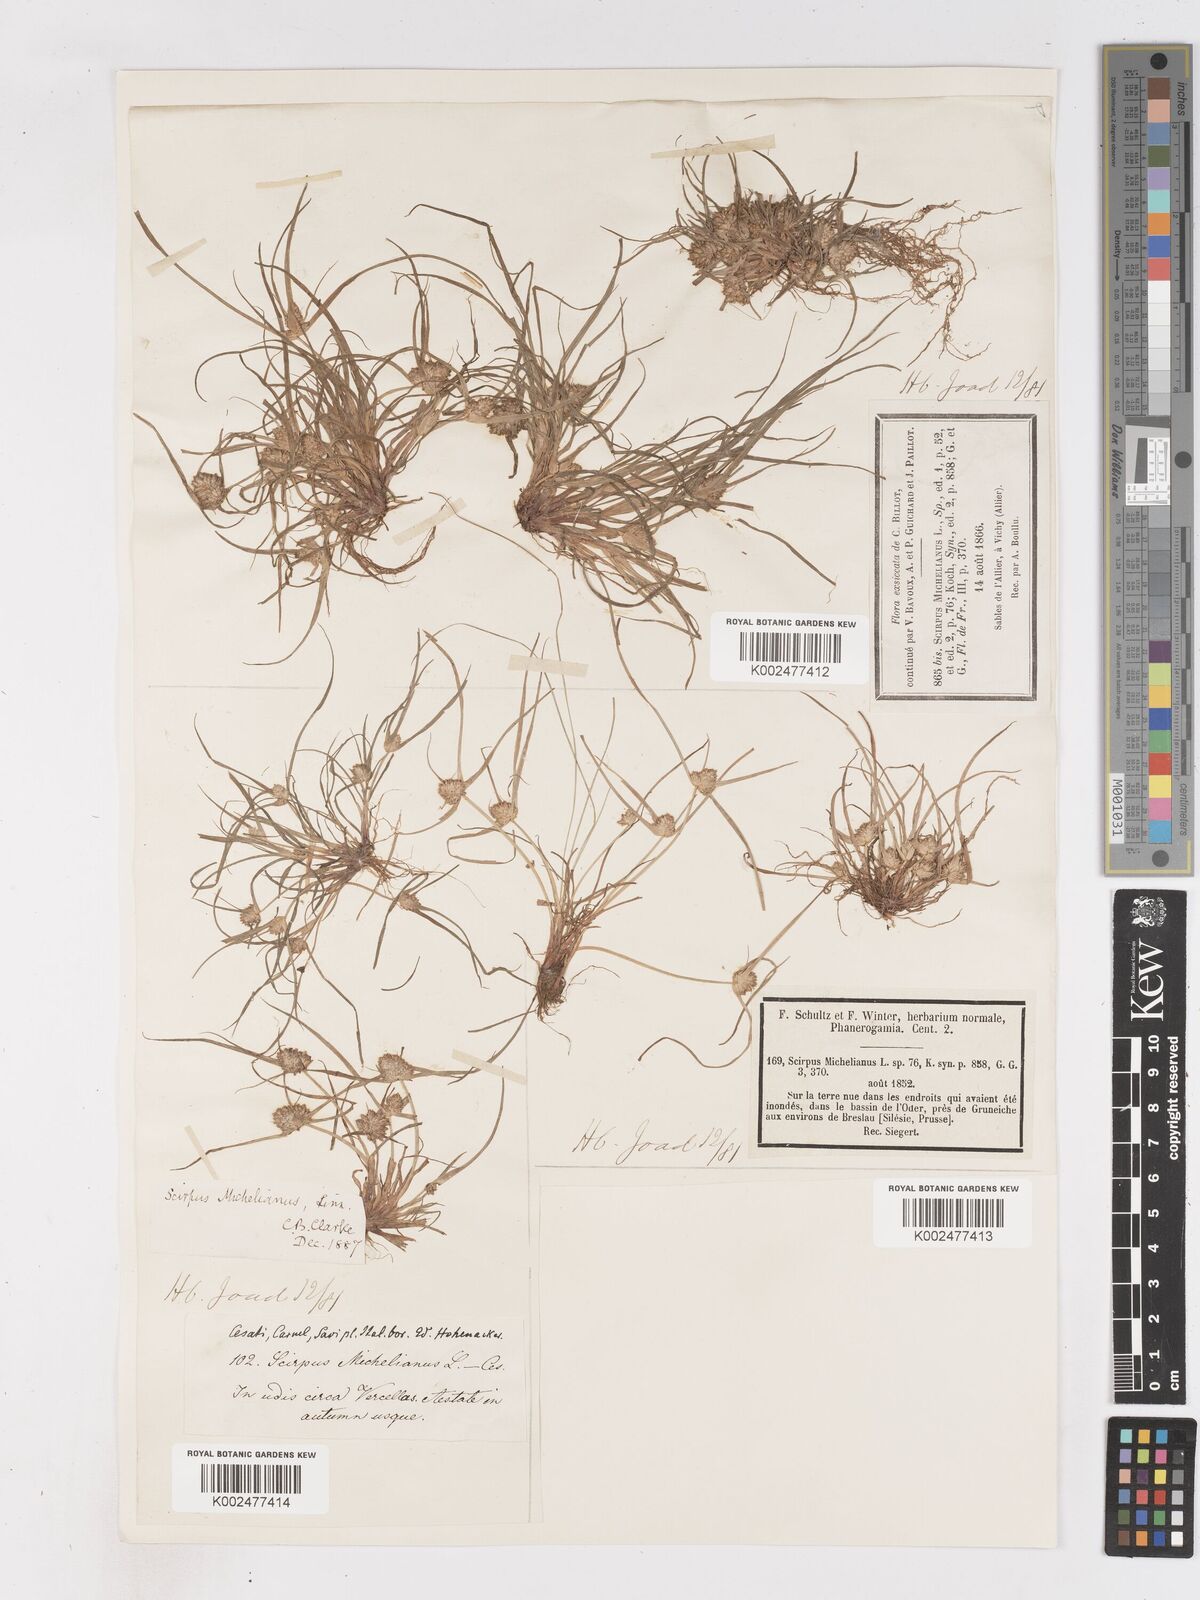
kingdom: Plantae
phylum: Tracheophyta
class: Liliopsida
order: Poales
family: Cyperaceae
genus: Cyperus
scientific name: Cyperus michelianus
